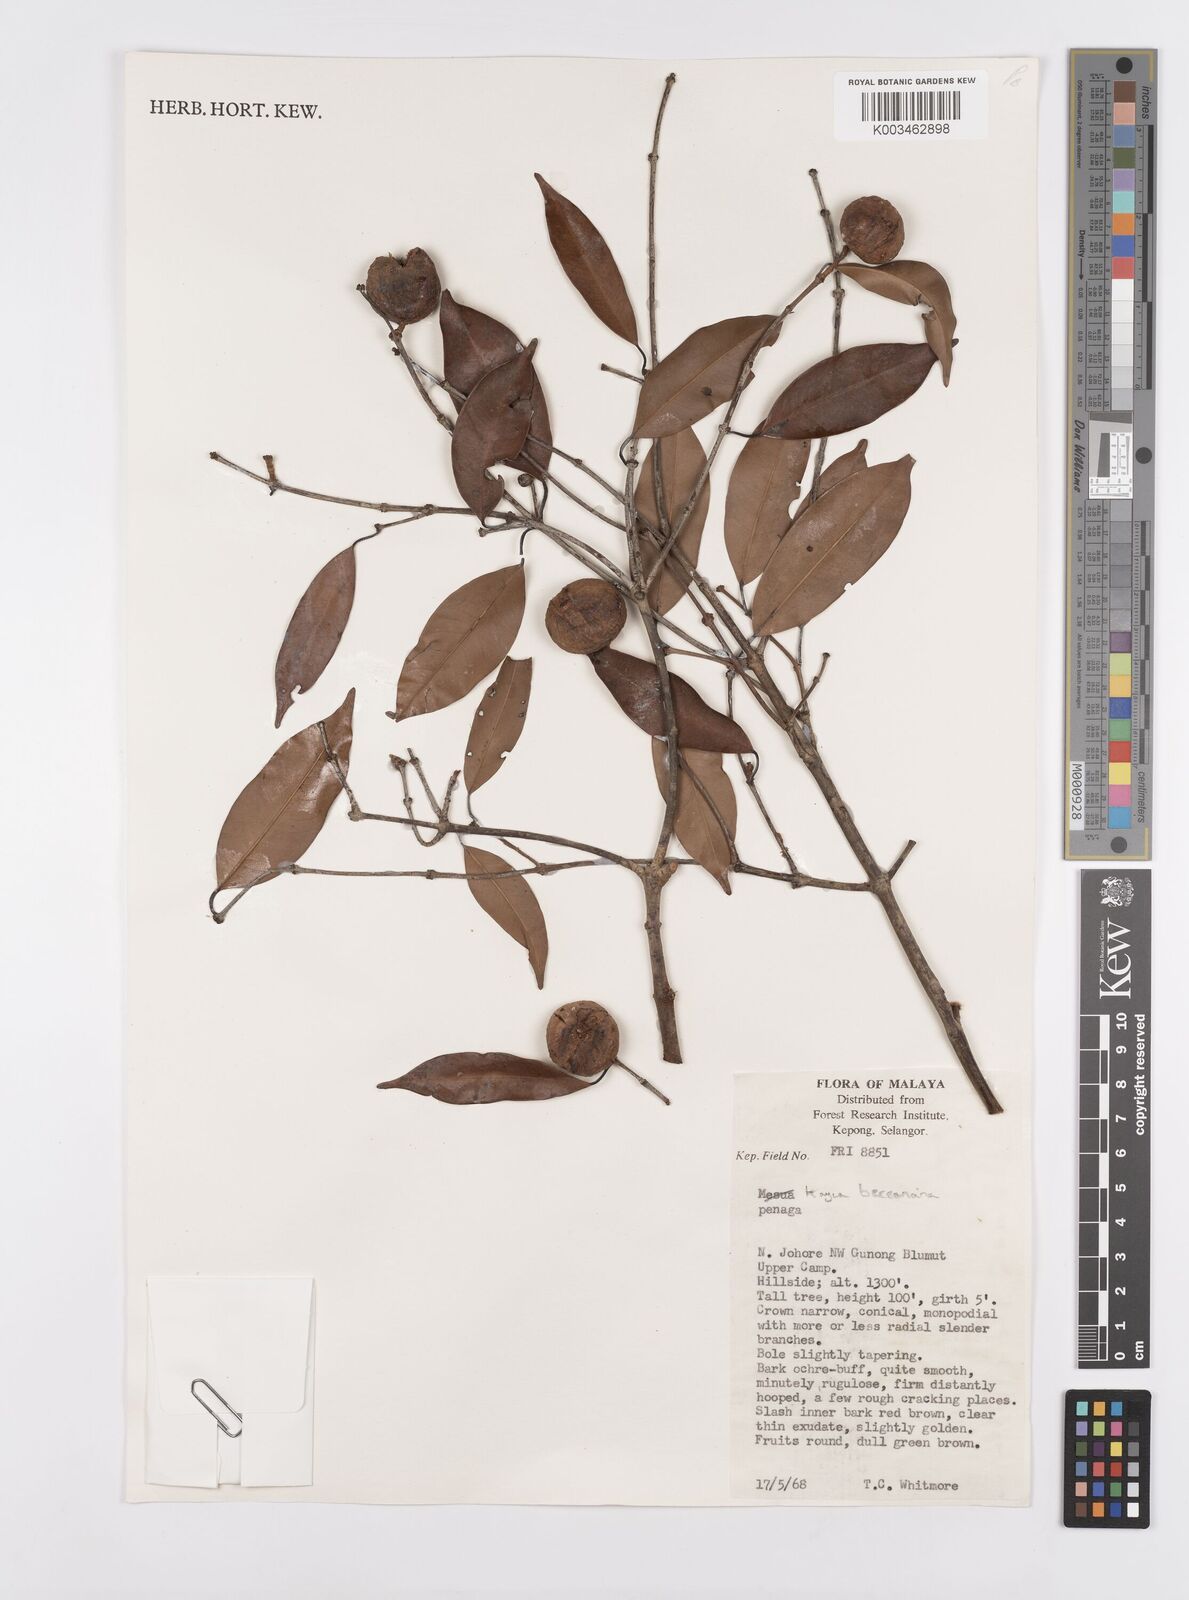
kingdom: Plantae
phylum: Tracheophyta
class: Magnoliopsida
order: Malpighiales
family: Calophyllaceae
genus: Kayea
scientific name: Kayea beccariana
